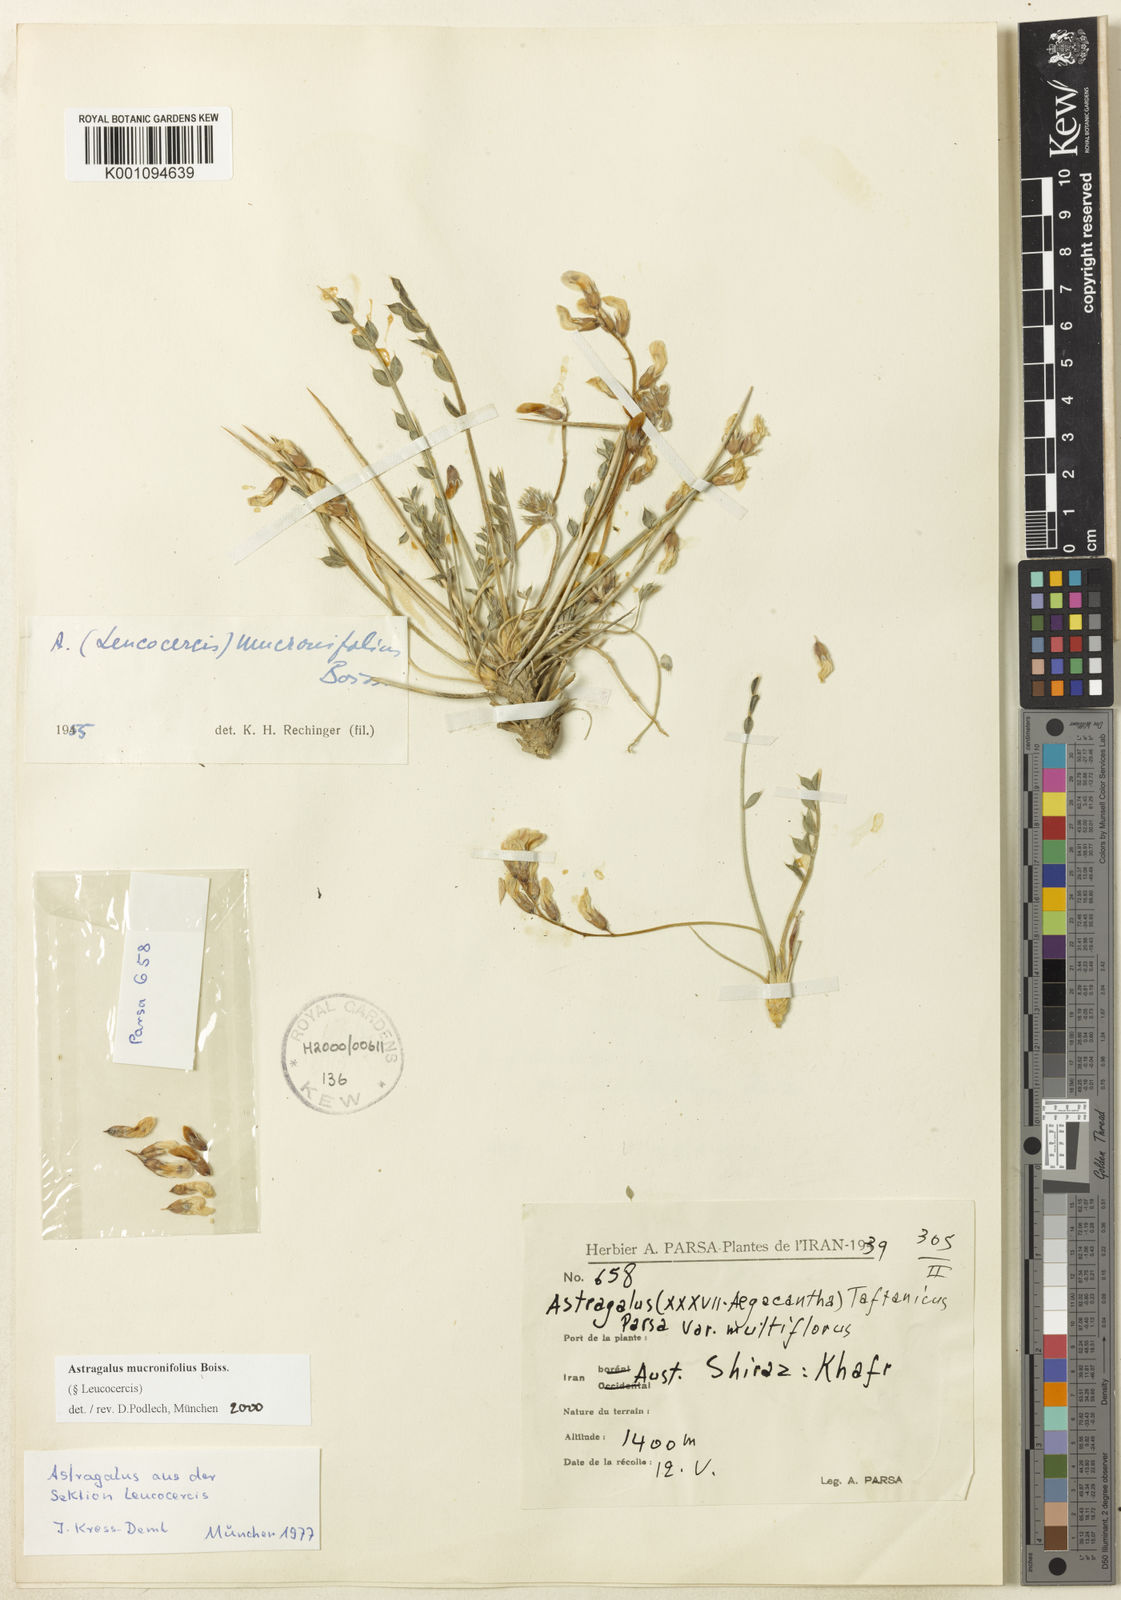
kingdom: Plantae
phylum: Tracheophyta
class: Magnoliopsida
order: Fabales
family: Fabaceae
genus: Astragalus
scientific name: Astragalus
